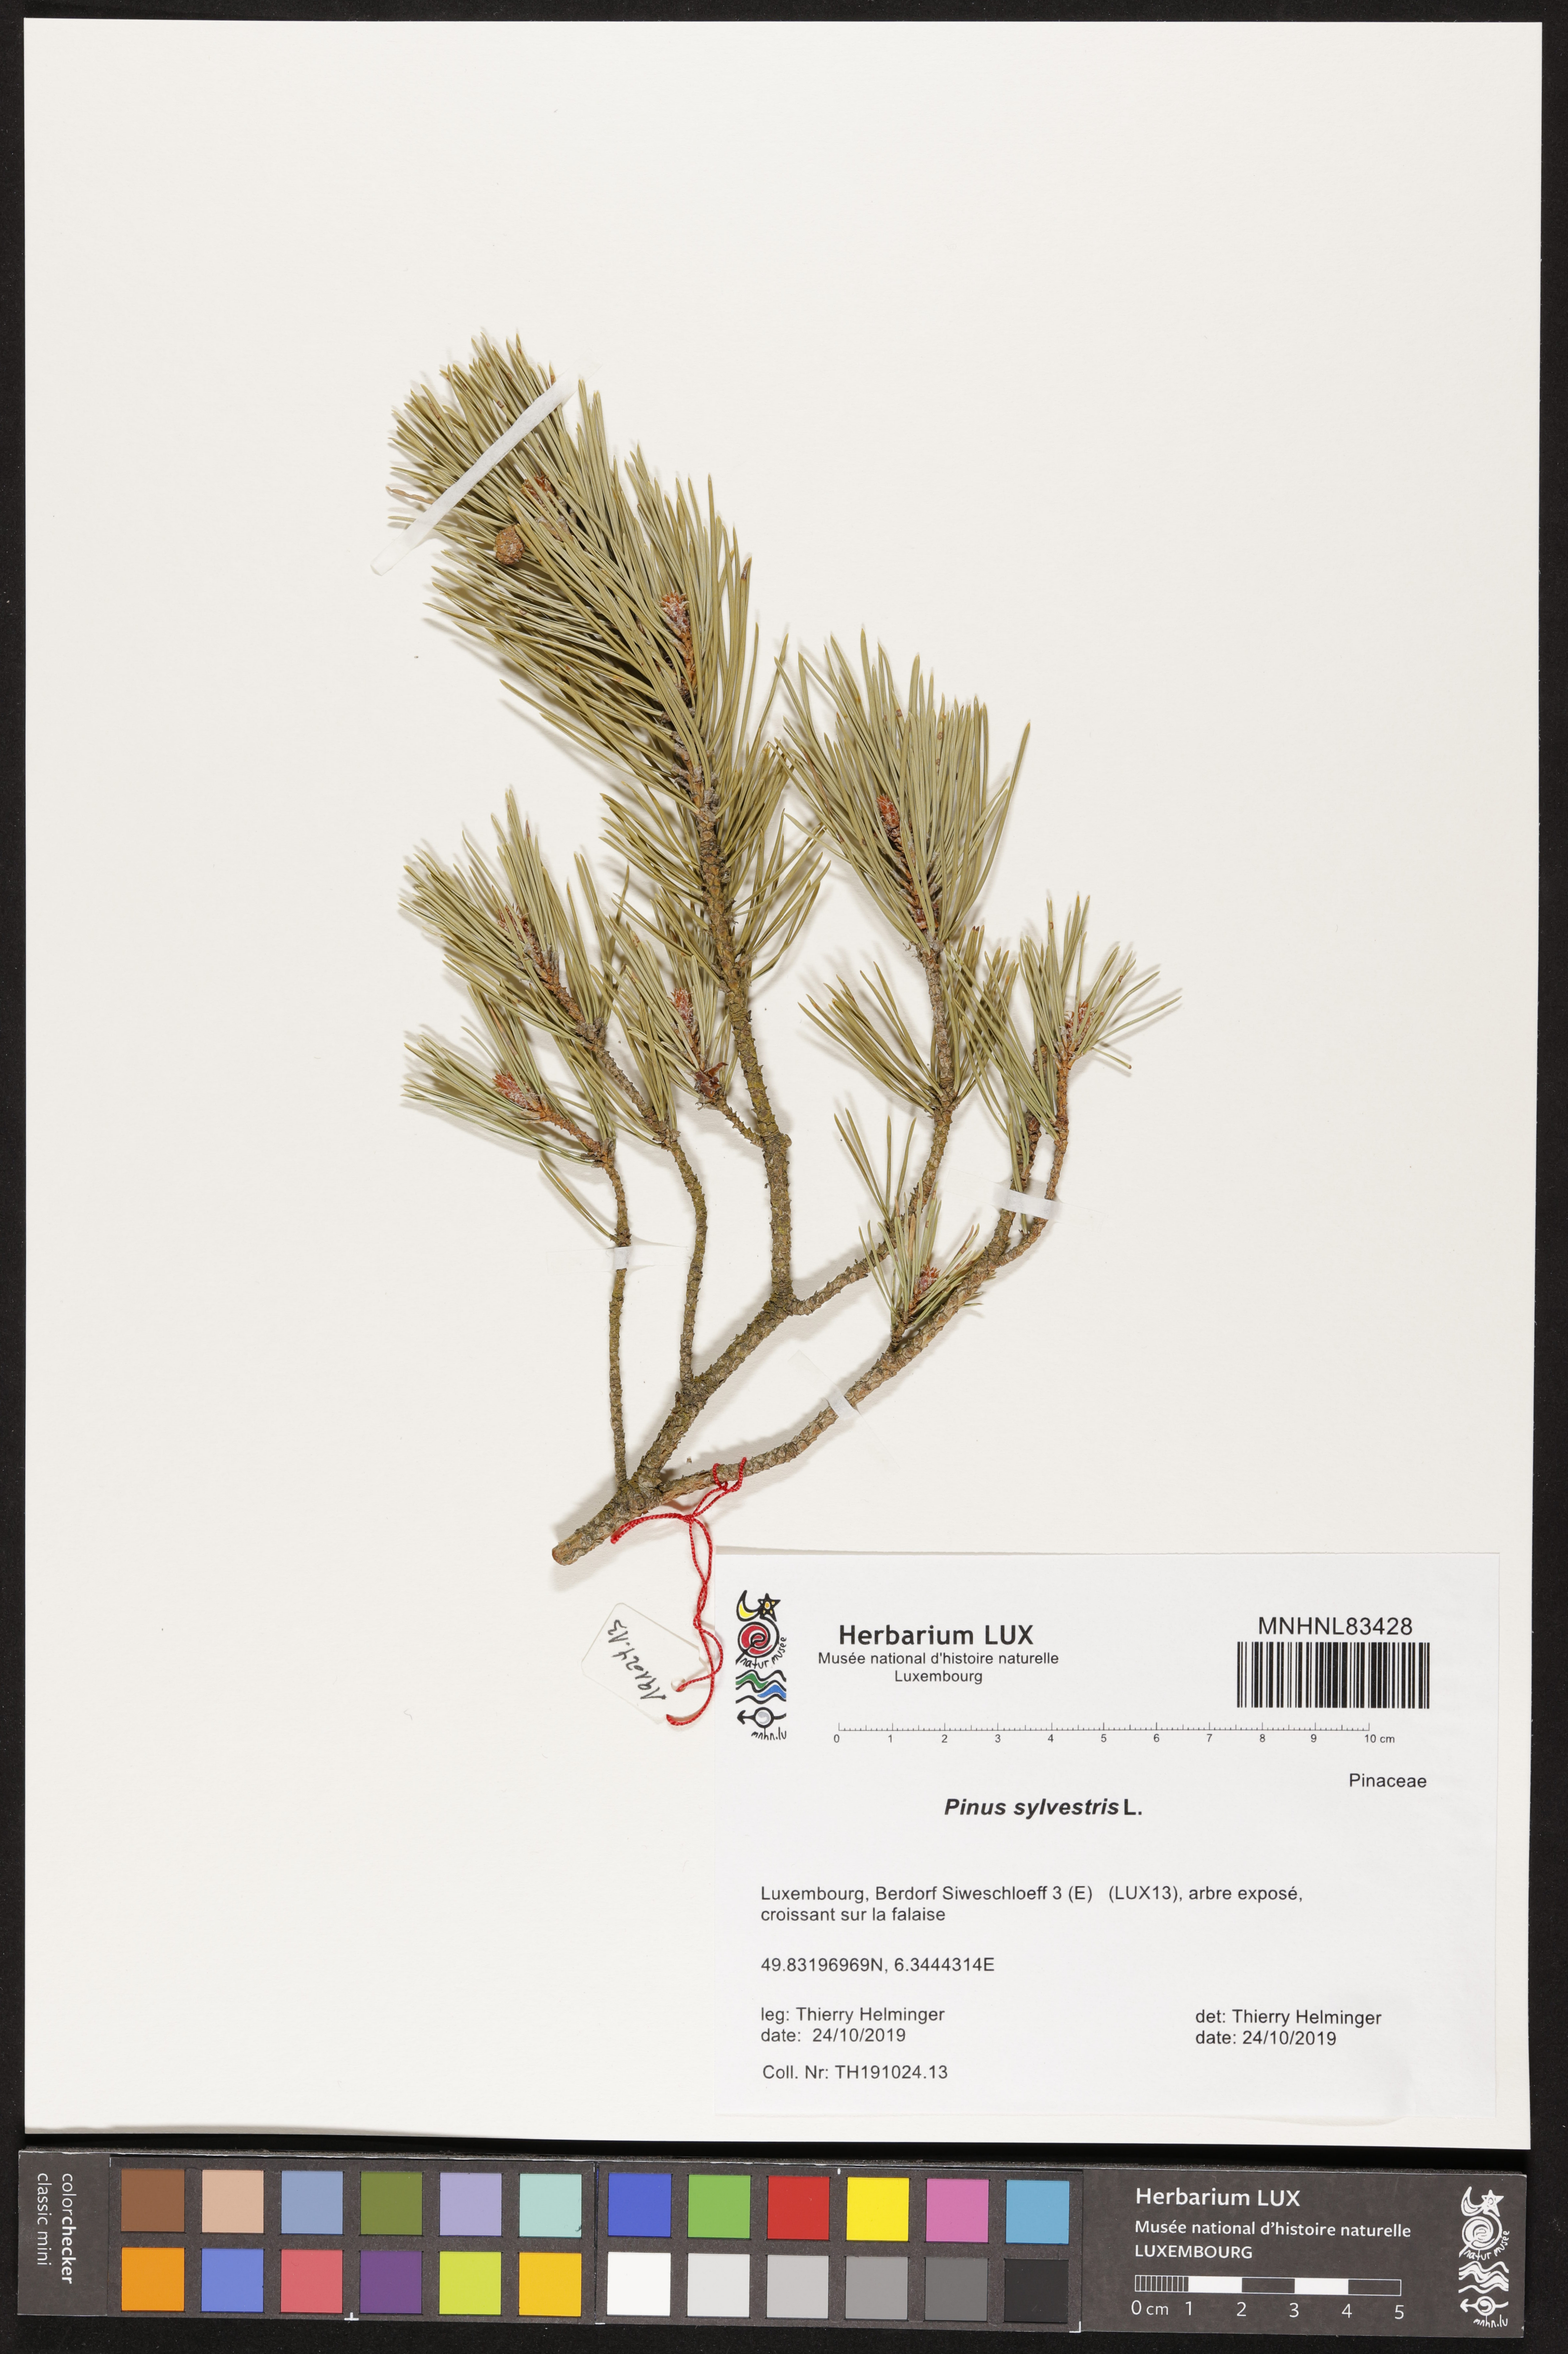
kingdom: Plantae
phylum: Tracheophyta
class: Pinopsida
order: Pinales
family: Pinaceae
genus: Pinus
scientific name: Pinus sylvestris
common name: Scots pine
